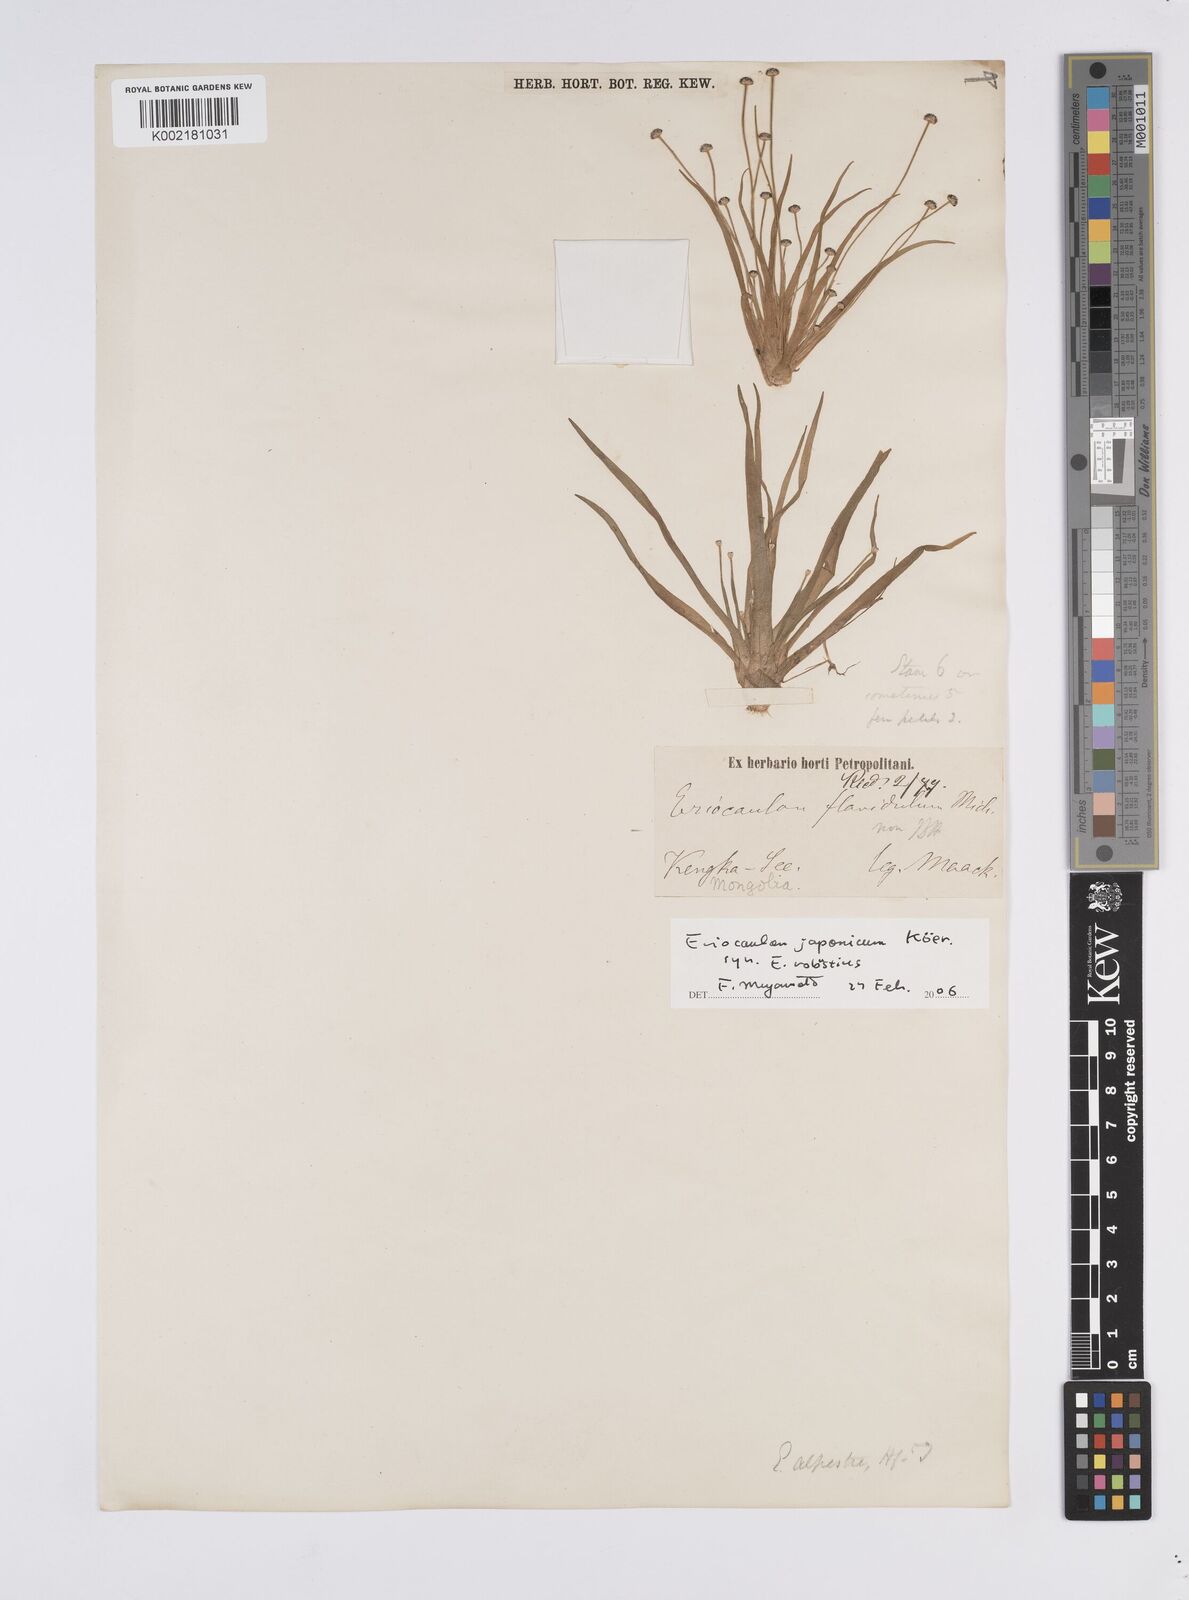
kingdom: Plantae
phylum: Tracheophyta
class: Liliopsida
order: Poales
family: Eriocaulaceae
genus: Eriocaulon
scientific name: Eriocaulon alpestre
